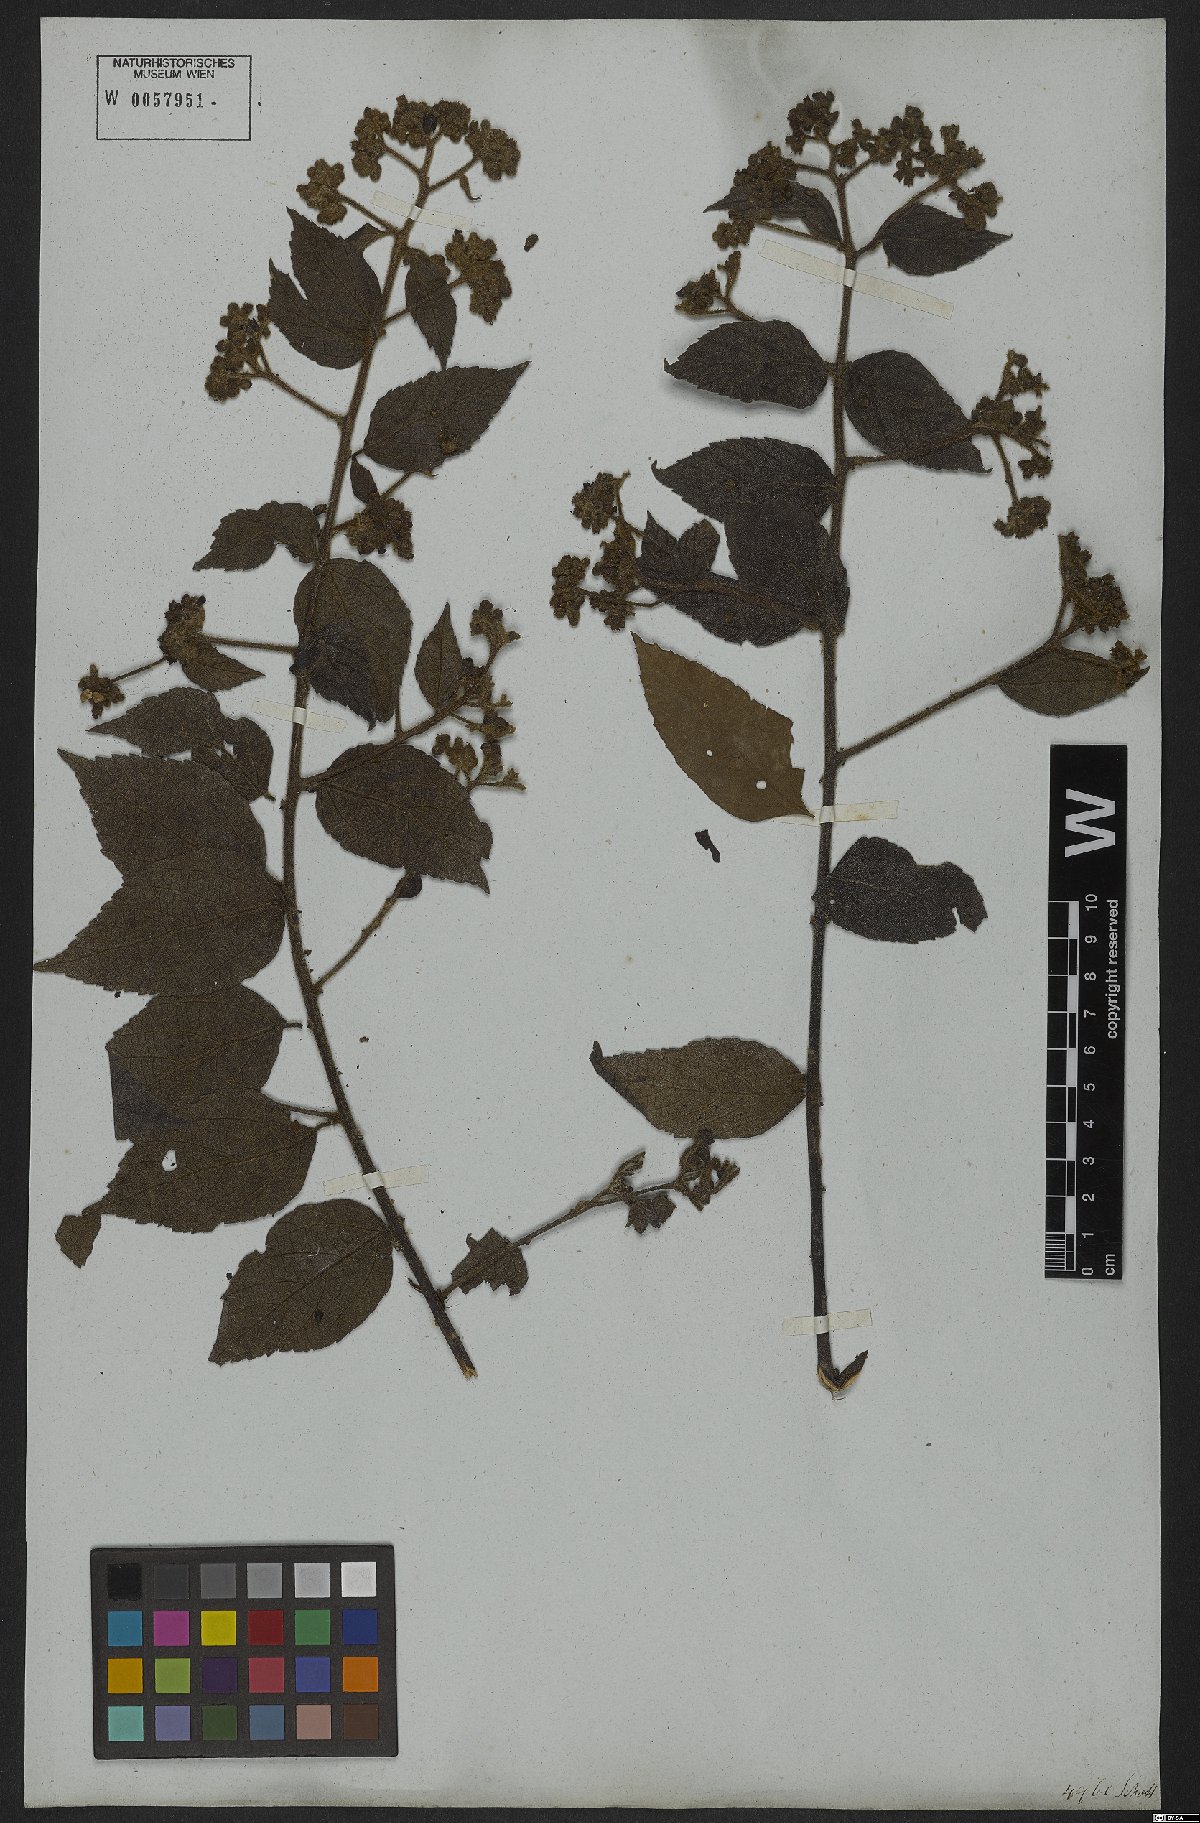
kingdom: Plantae
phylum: Tracheophyta
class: Magnoliopsida
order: Boraginales
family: Cordiaceae
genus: Varronia
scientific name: Varronia polycephala
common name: Black-sage
